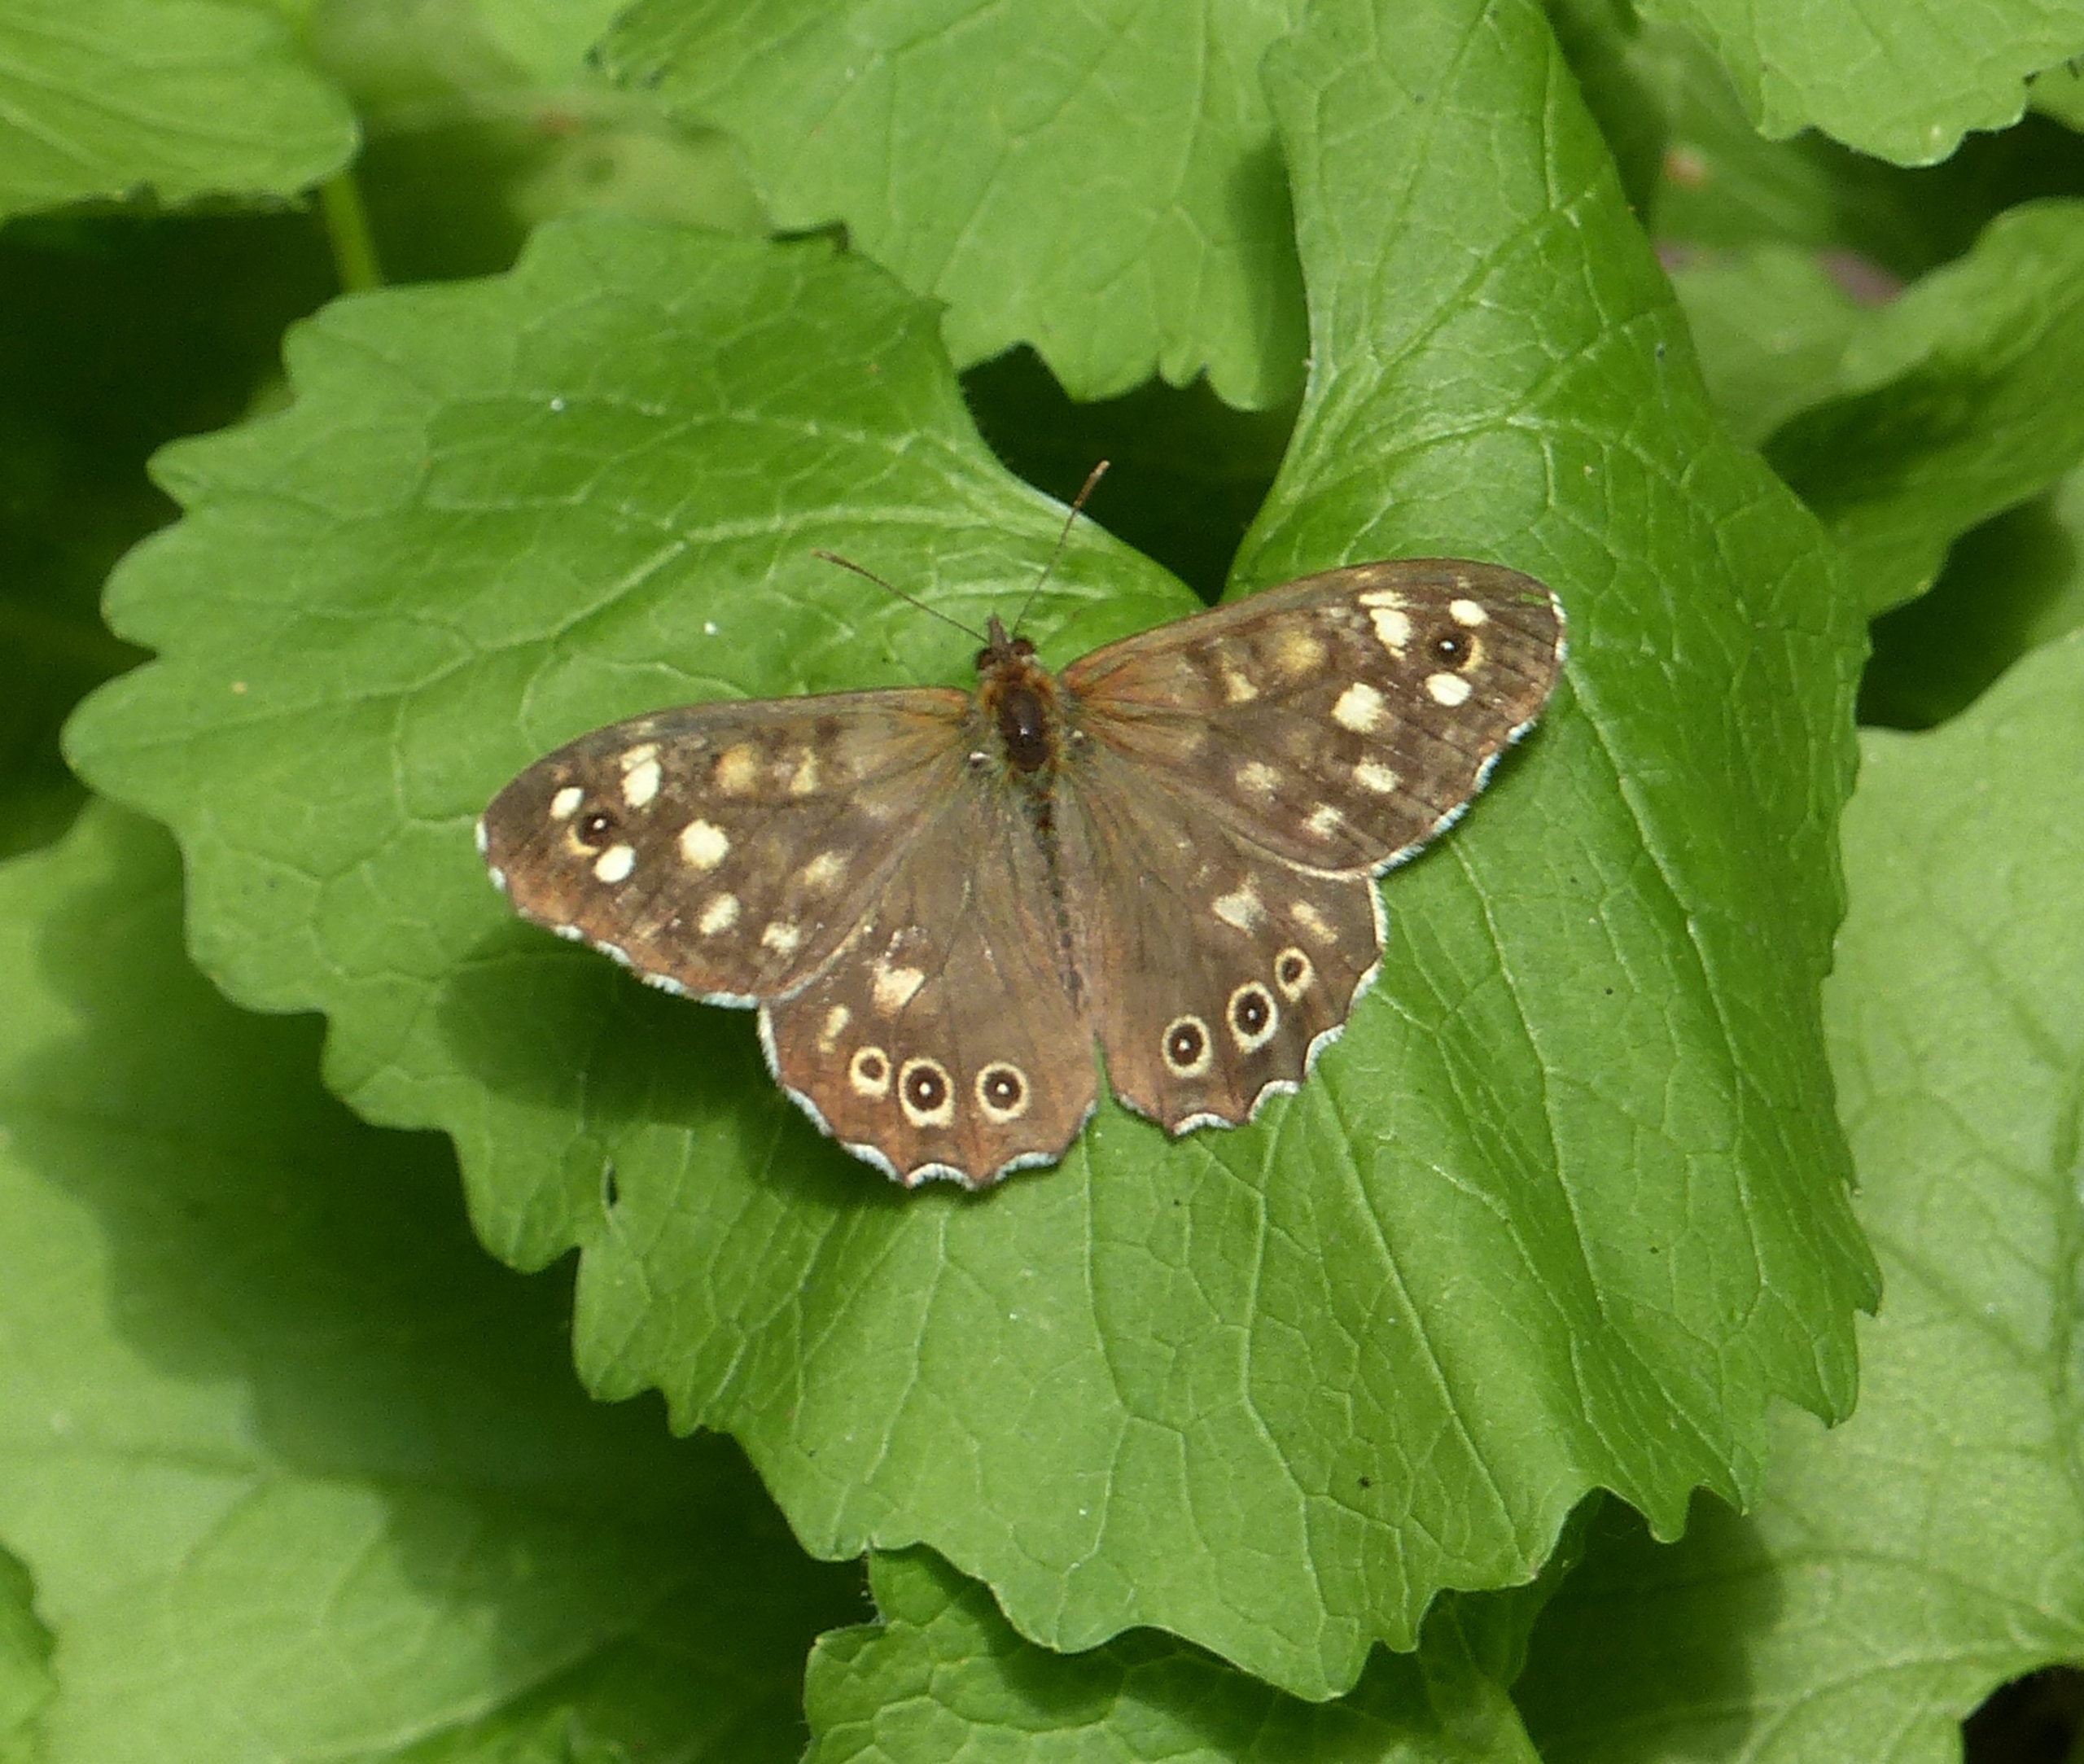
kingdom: Animalia
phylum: Arthropoda
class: Insecta
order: Lepidoptera
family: Nymphalidae
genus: Pararge
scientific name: Pararge aegeria
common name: Skovrandøje
